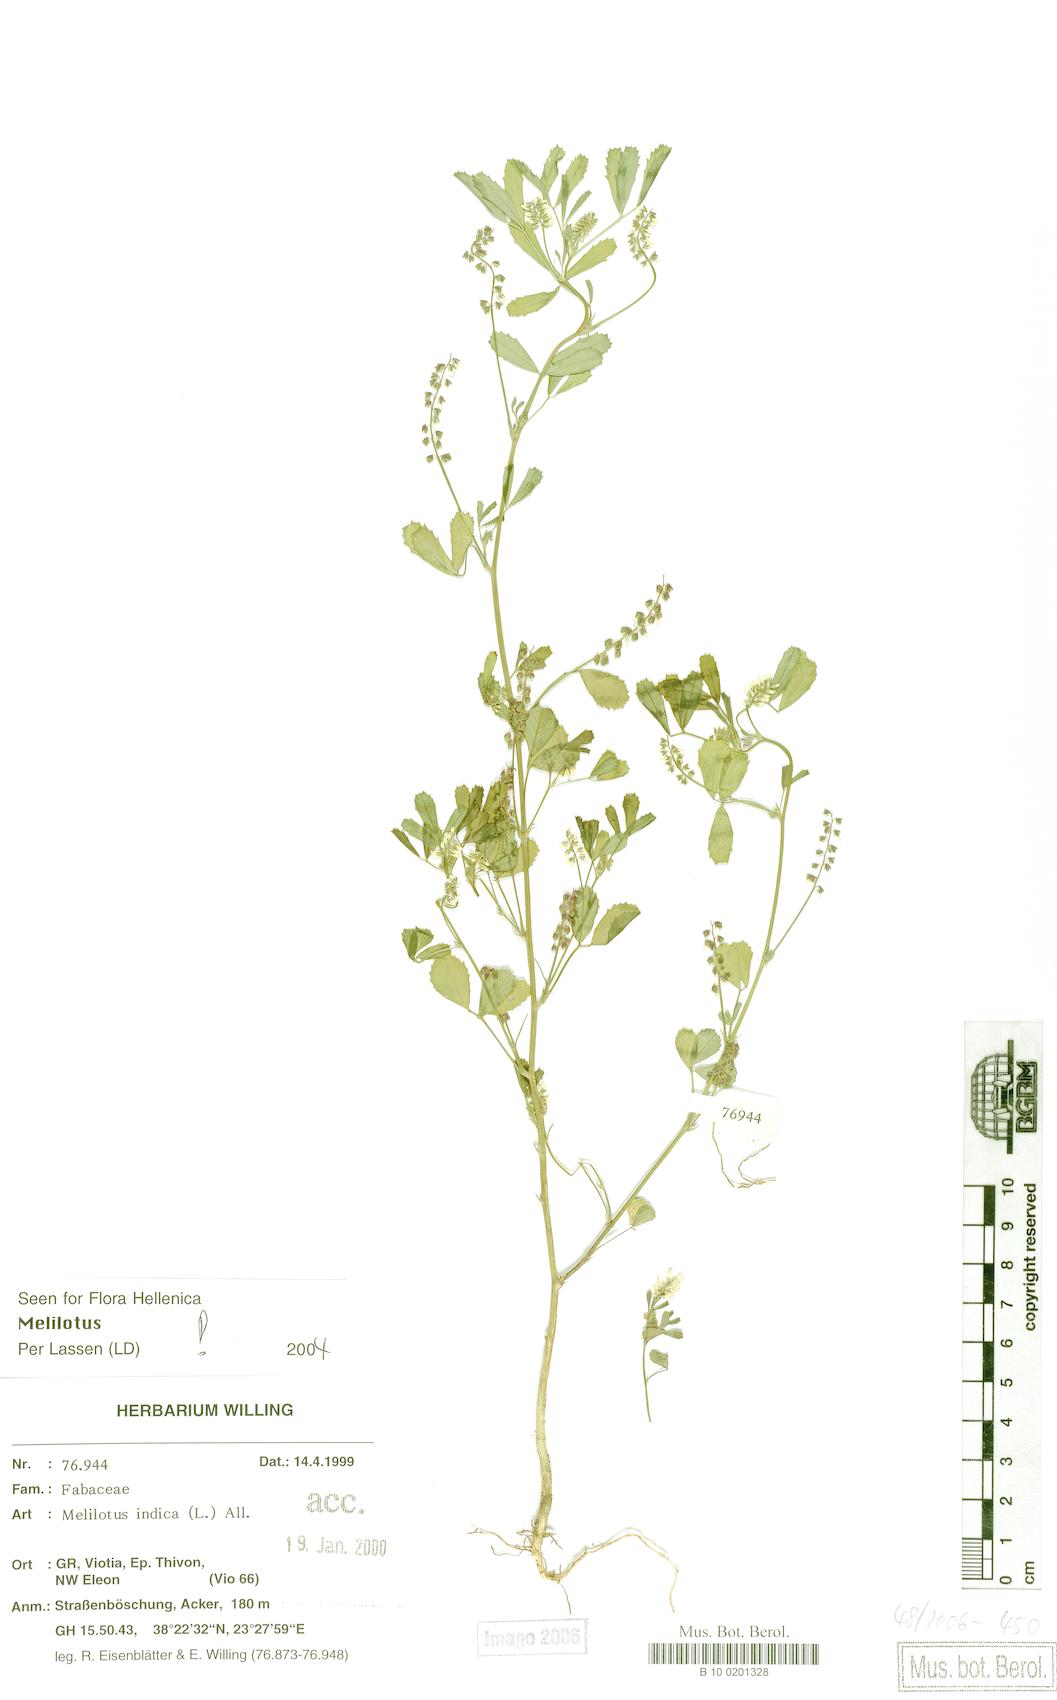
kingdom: Plantae
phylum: Tracheophyta
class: Magnoliopsida
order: Fabales
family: Fabaceae
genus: Melilotus
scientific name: Melilotus indicus
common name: Small melilot
